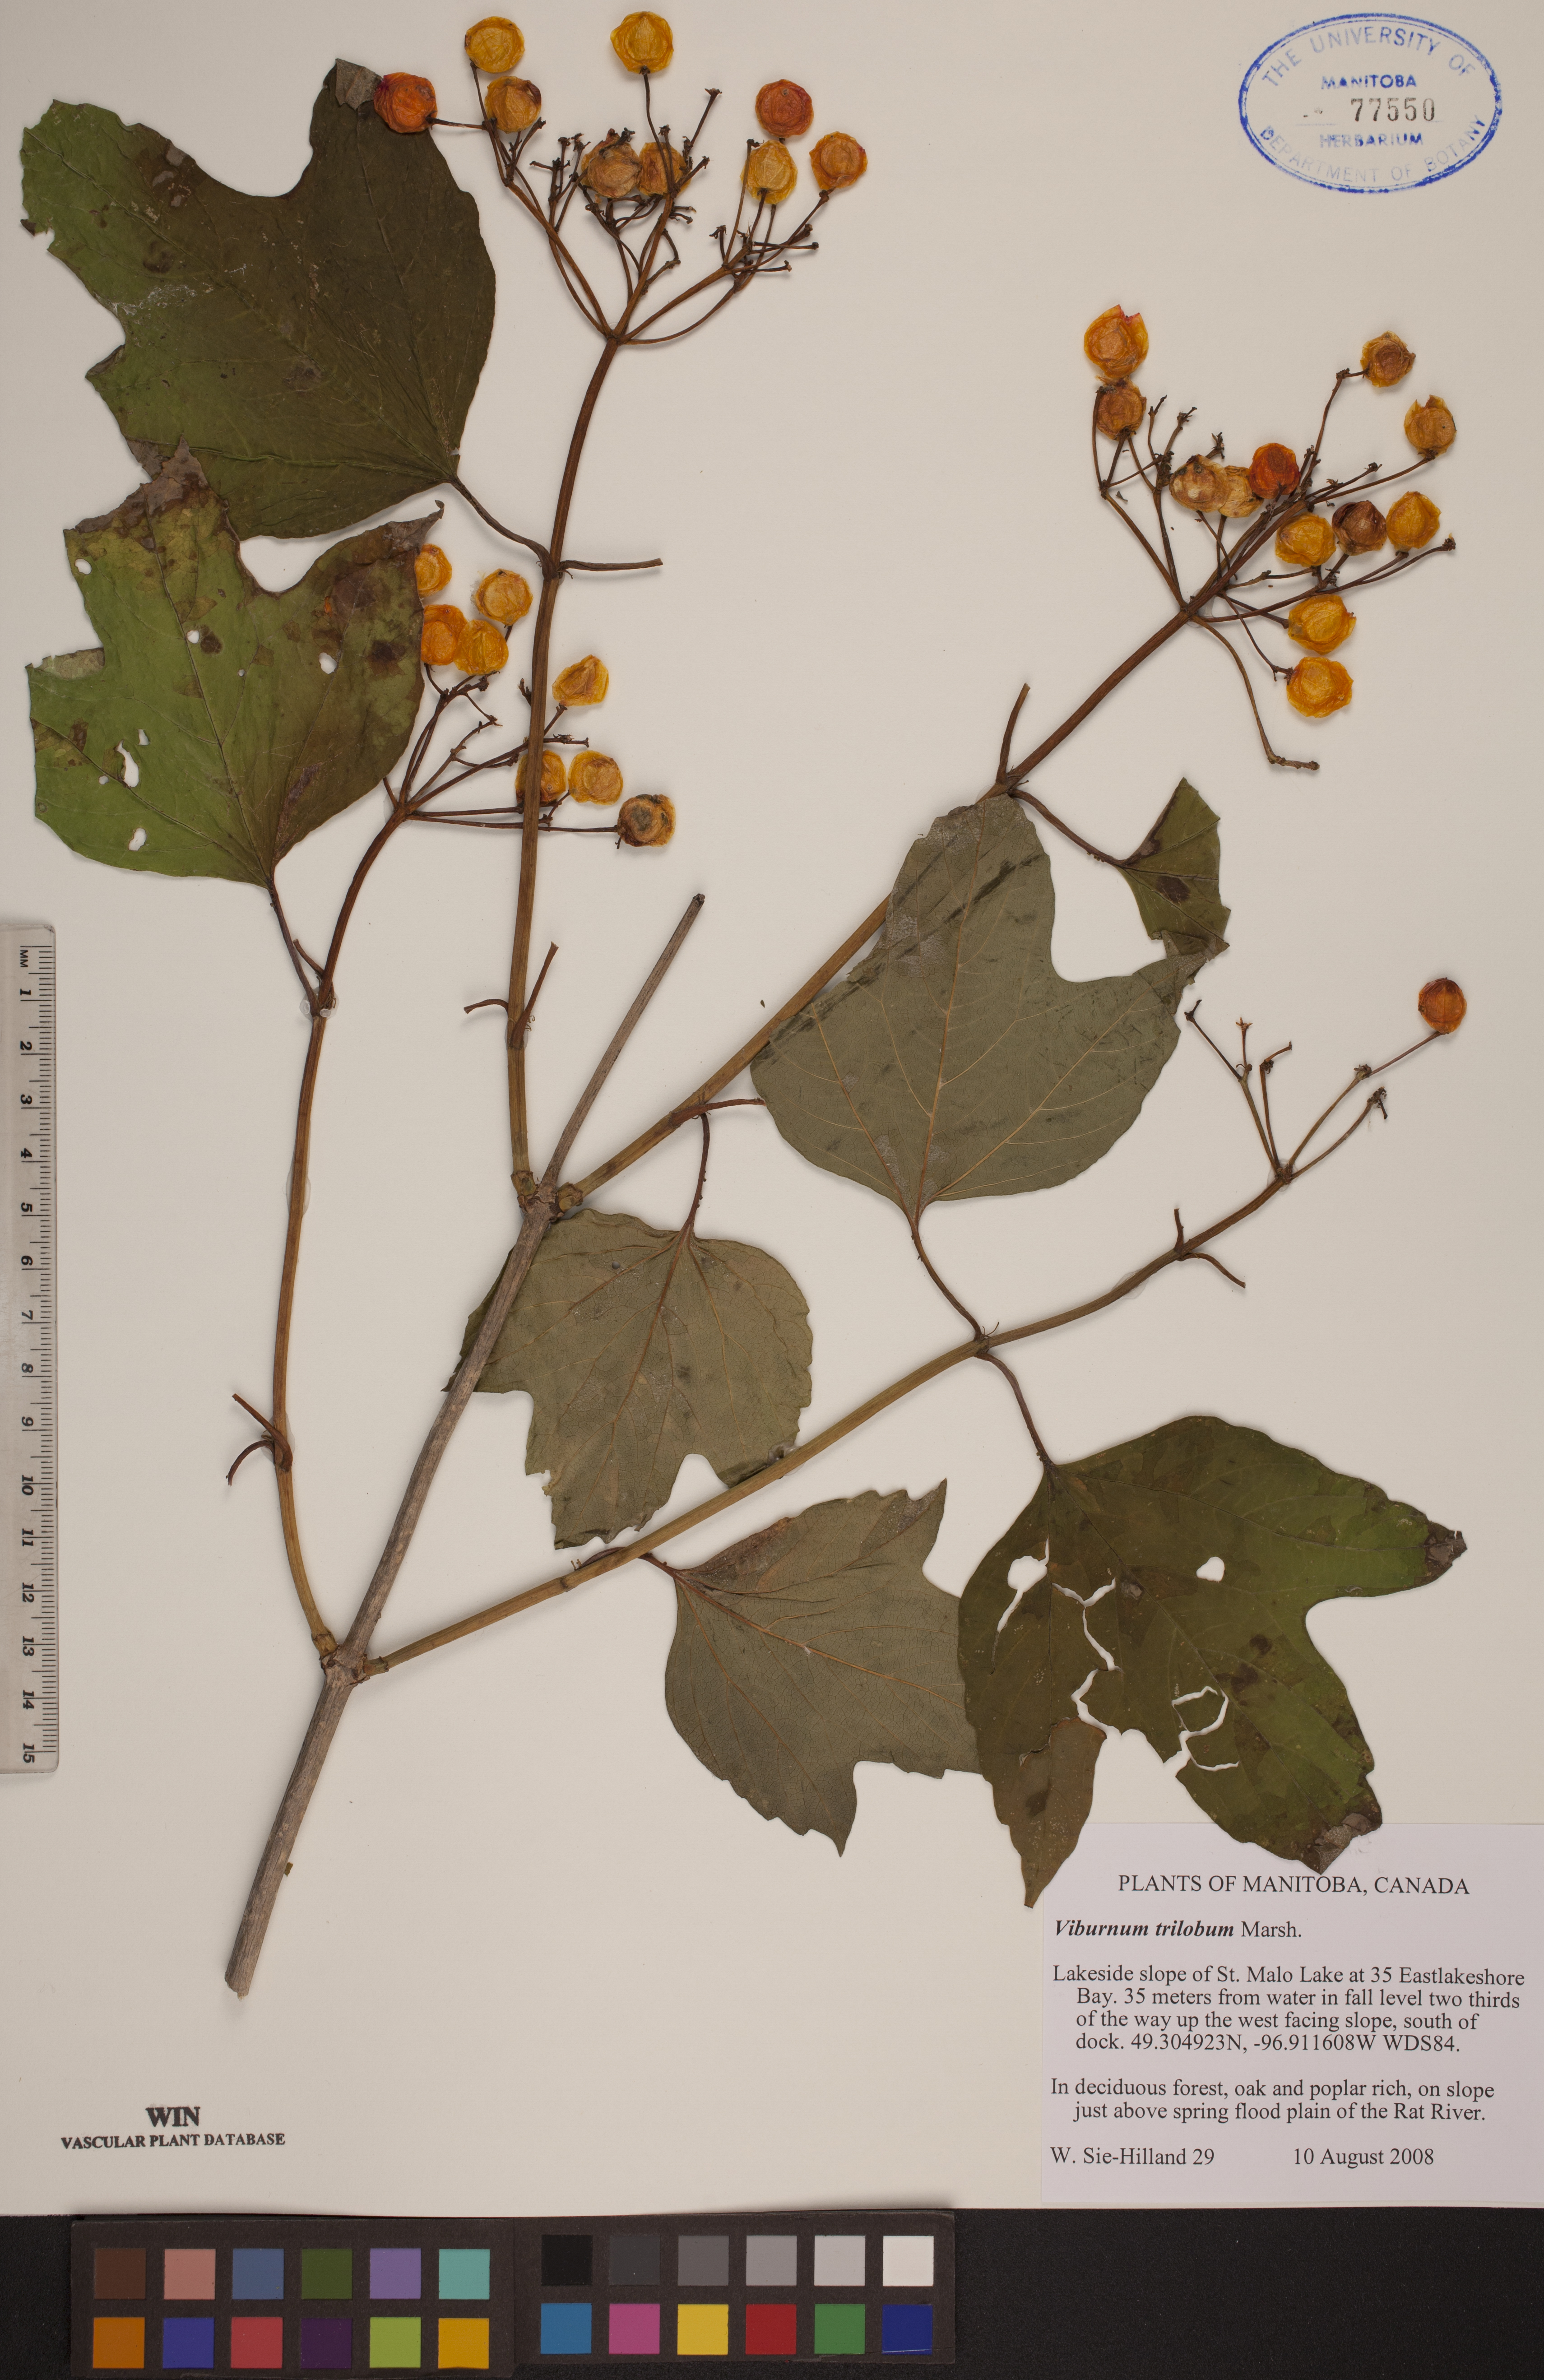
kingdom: Plantae
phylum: Tracheophyta
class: Magnoliopsida
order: Dipsacales
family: Viburnaceae
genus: Viburnum
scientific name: Viburnum trilobum
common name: American cranberrybush
